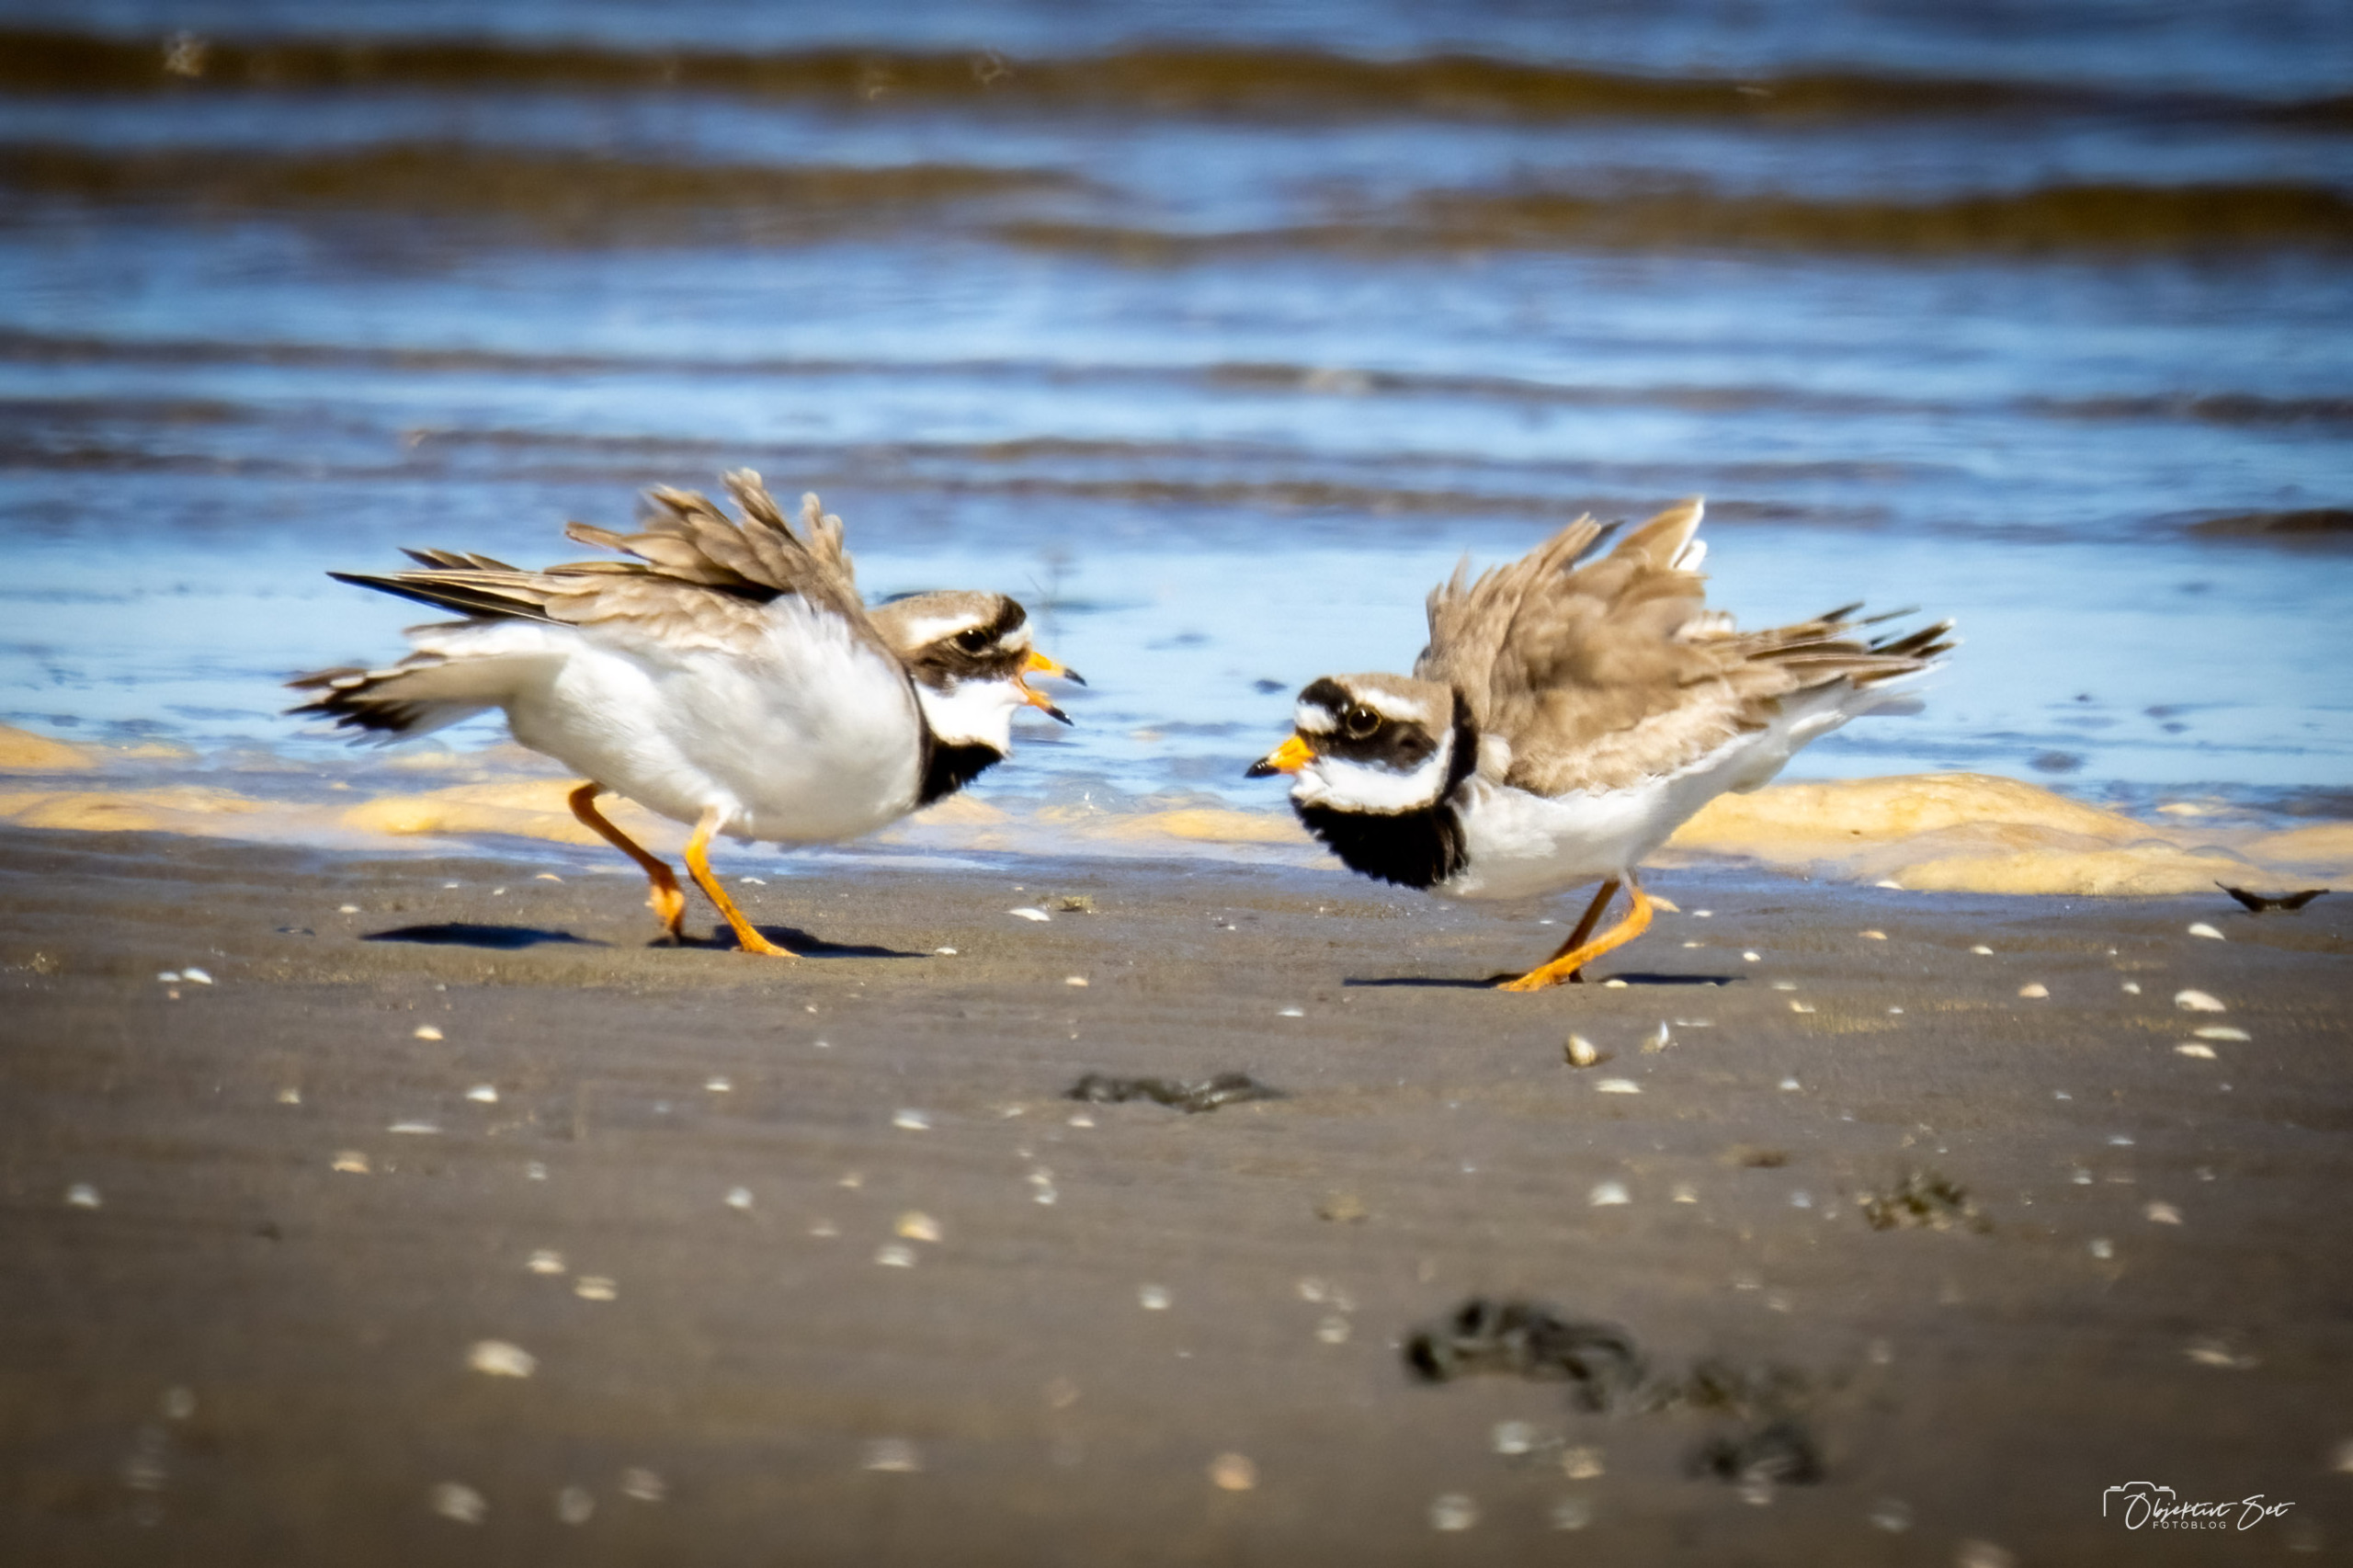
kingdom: Animalia
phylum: Chordata
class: Aves
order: Charadriiformes
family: Charadriidae
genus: Charadrius
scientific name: Charadrius hiaticula
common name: Stor præstekrave
